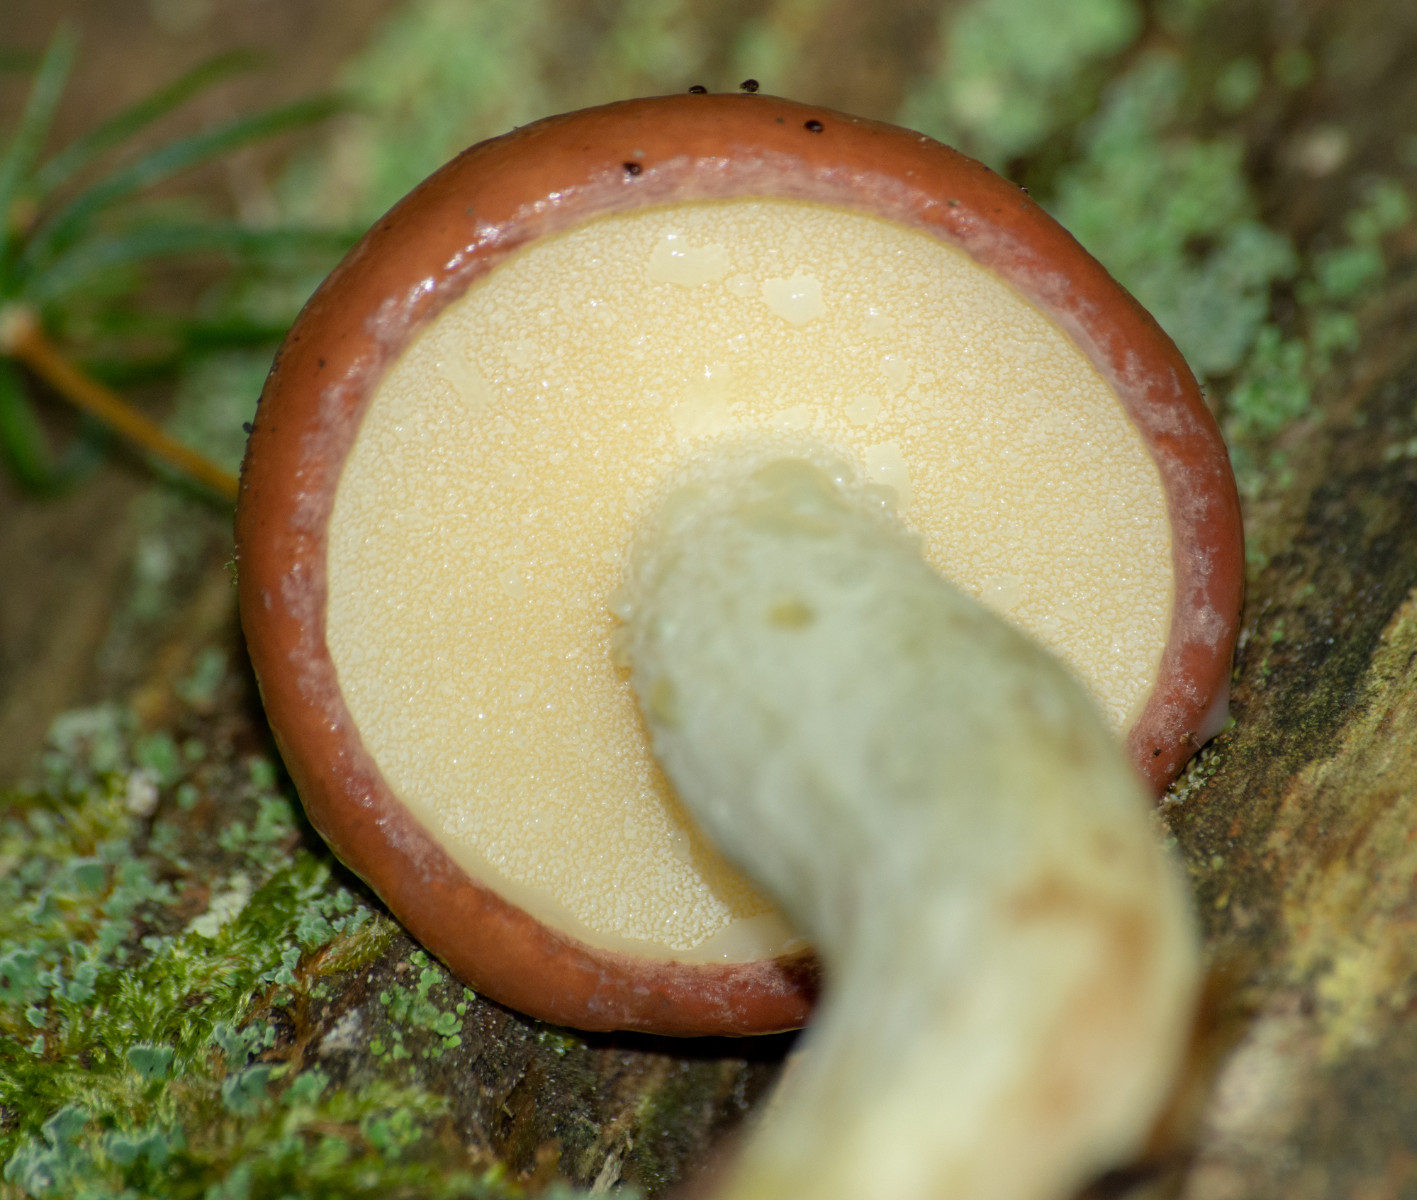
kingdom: Fungi
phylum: Basidiomycota
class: Agaricomycetes
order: Boletales
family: Suillaceae
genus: Suillus
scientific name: Suillus granulatus
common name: kornet slimrørhat
